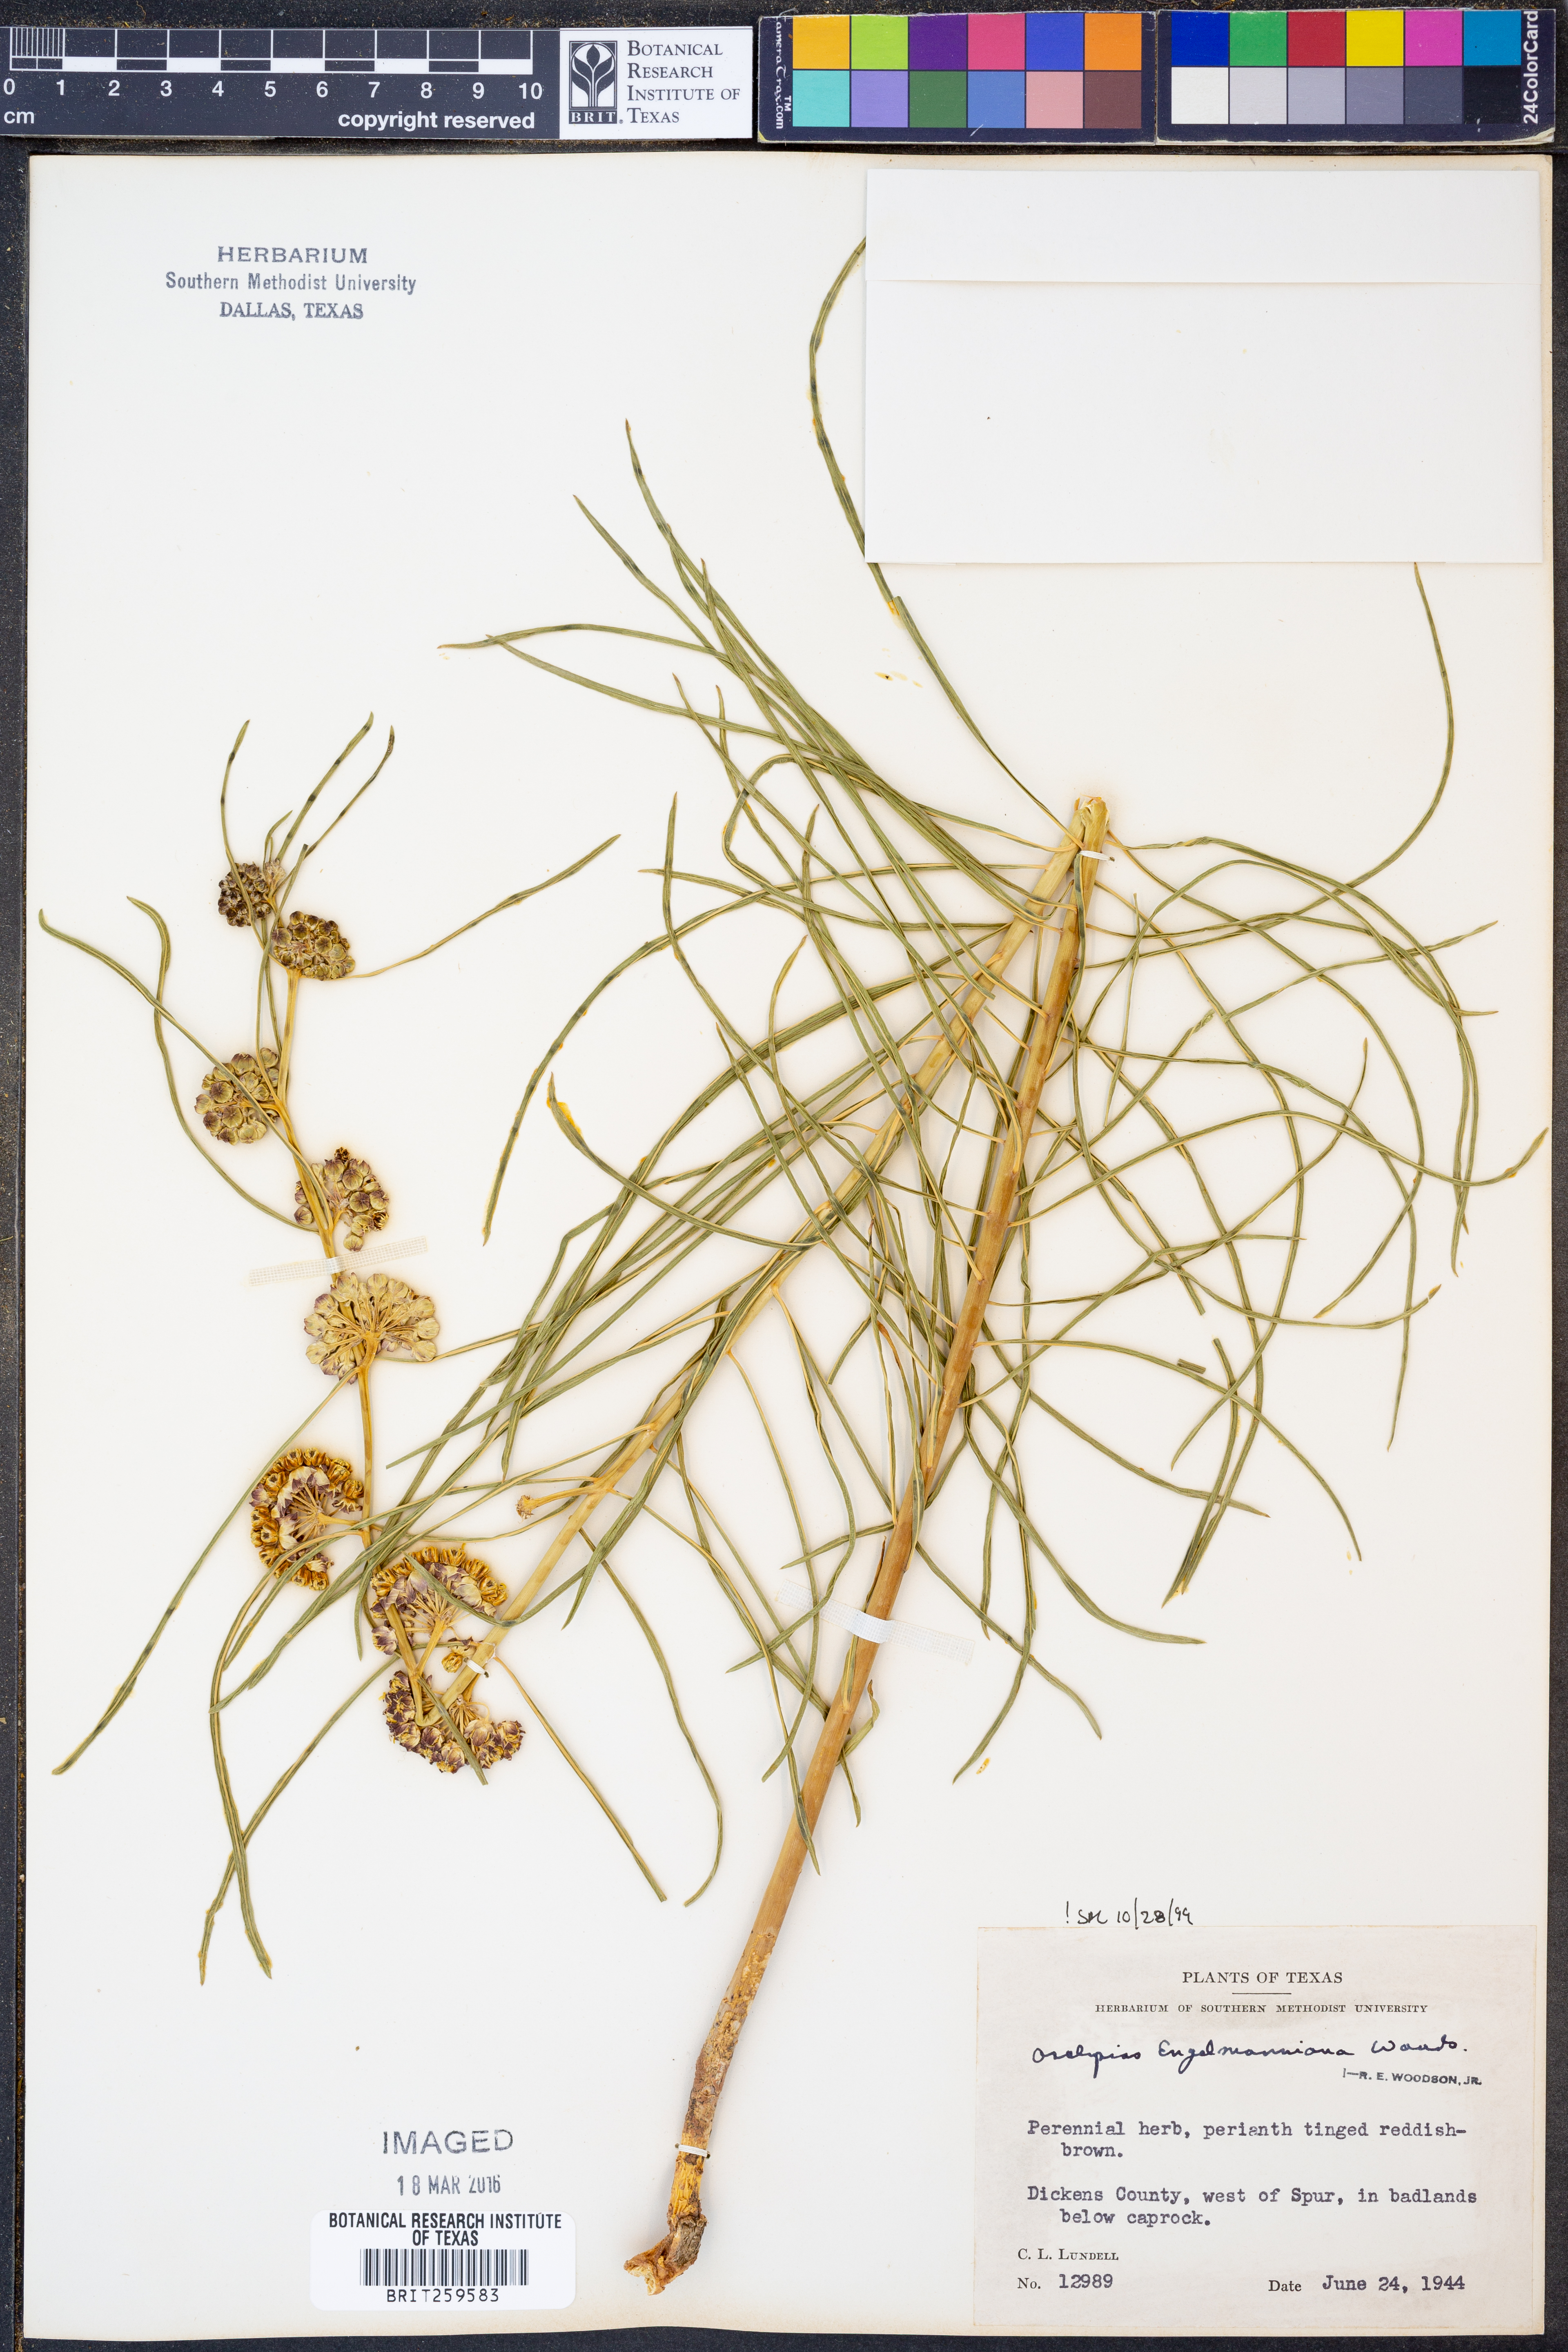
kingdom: Plantae
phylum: Tracheophyta
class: Magnoliopsida
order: Gentianales
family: Apocynaceae
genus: Asclepias
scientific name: Asclepias engelmanniana
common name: Engelmann's milkweed
